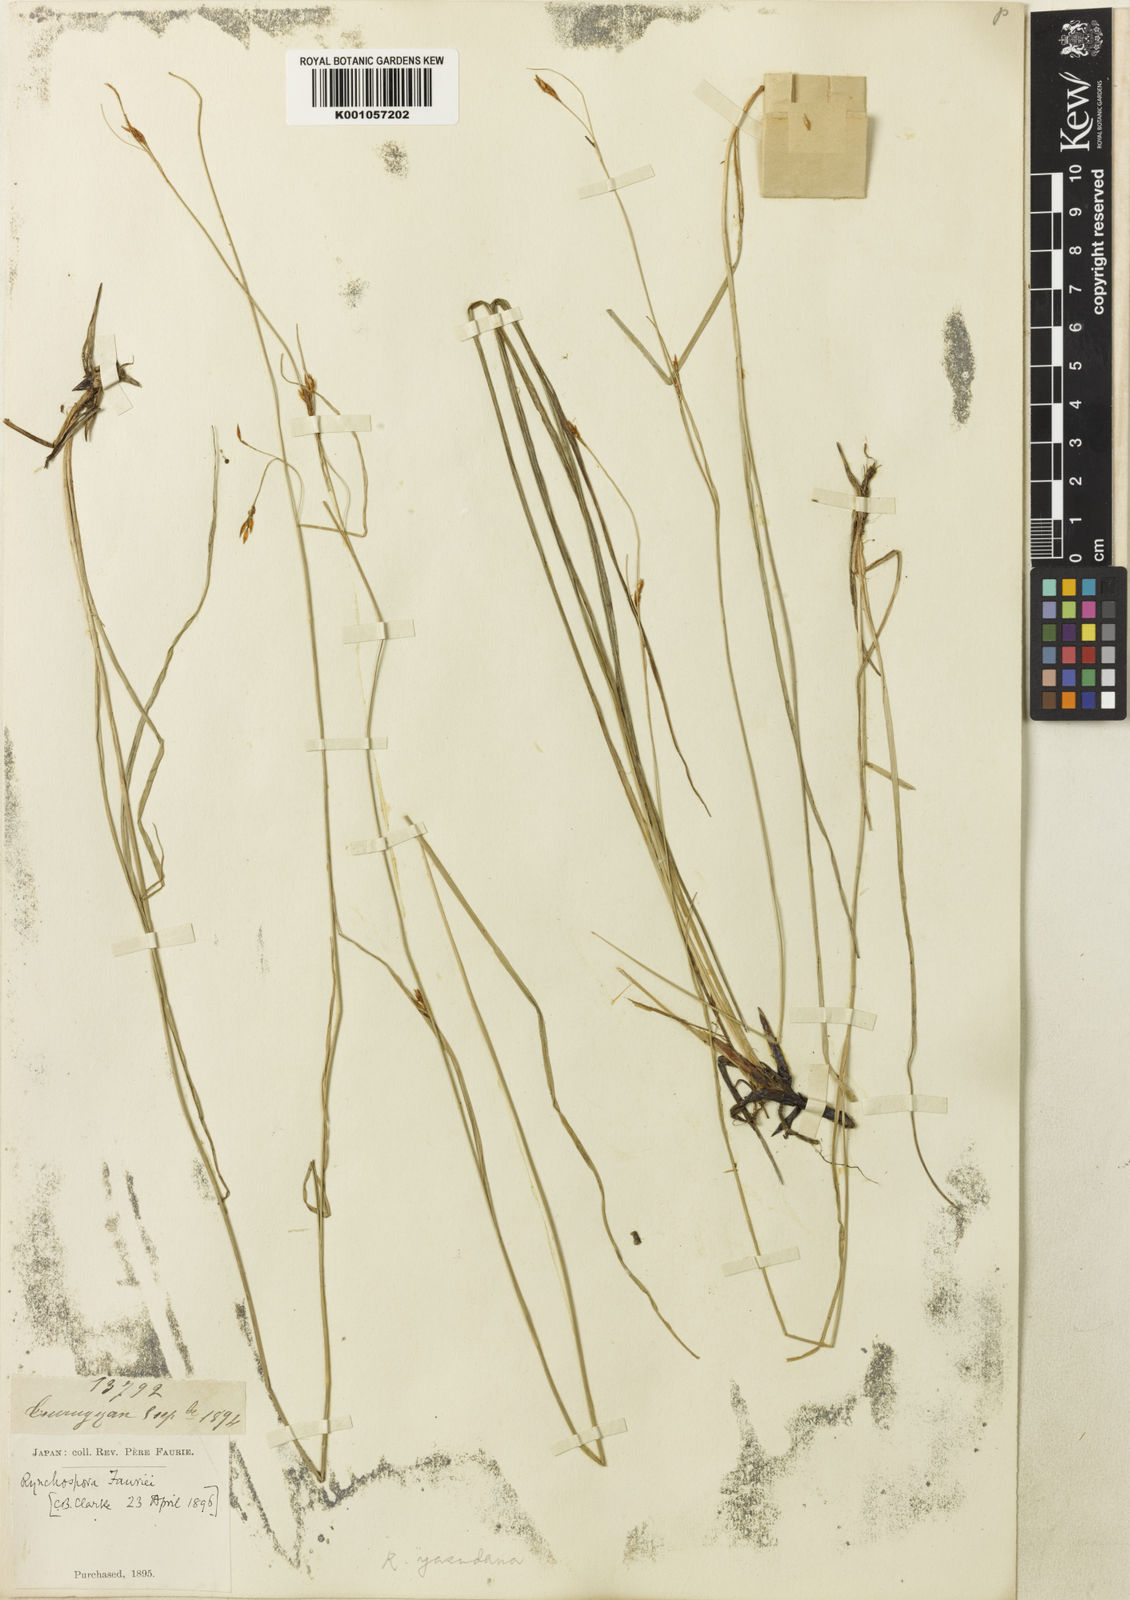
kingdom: Plantae
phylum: Tracheophyta
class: Liliopsida
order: Poales
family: Cyperaceae
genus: Rhynchospora
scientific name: Rhynchospora
